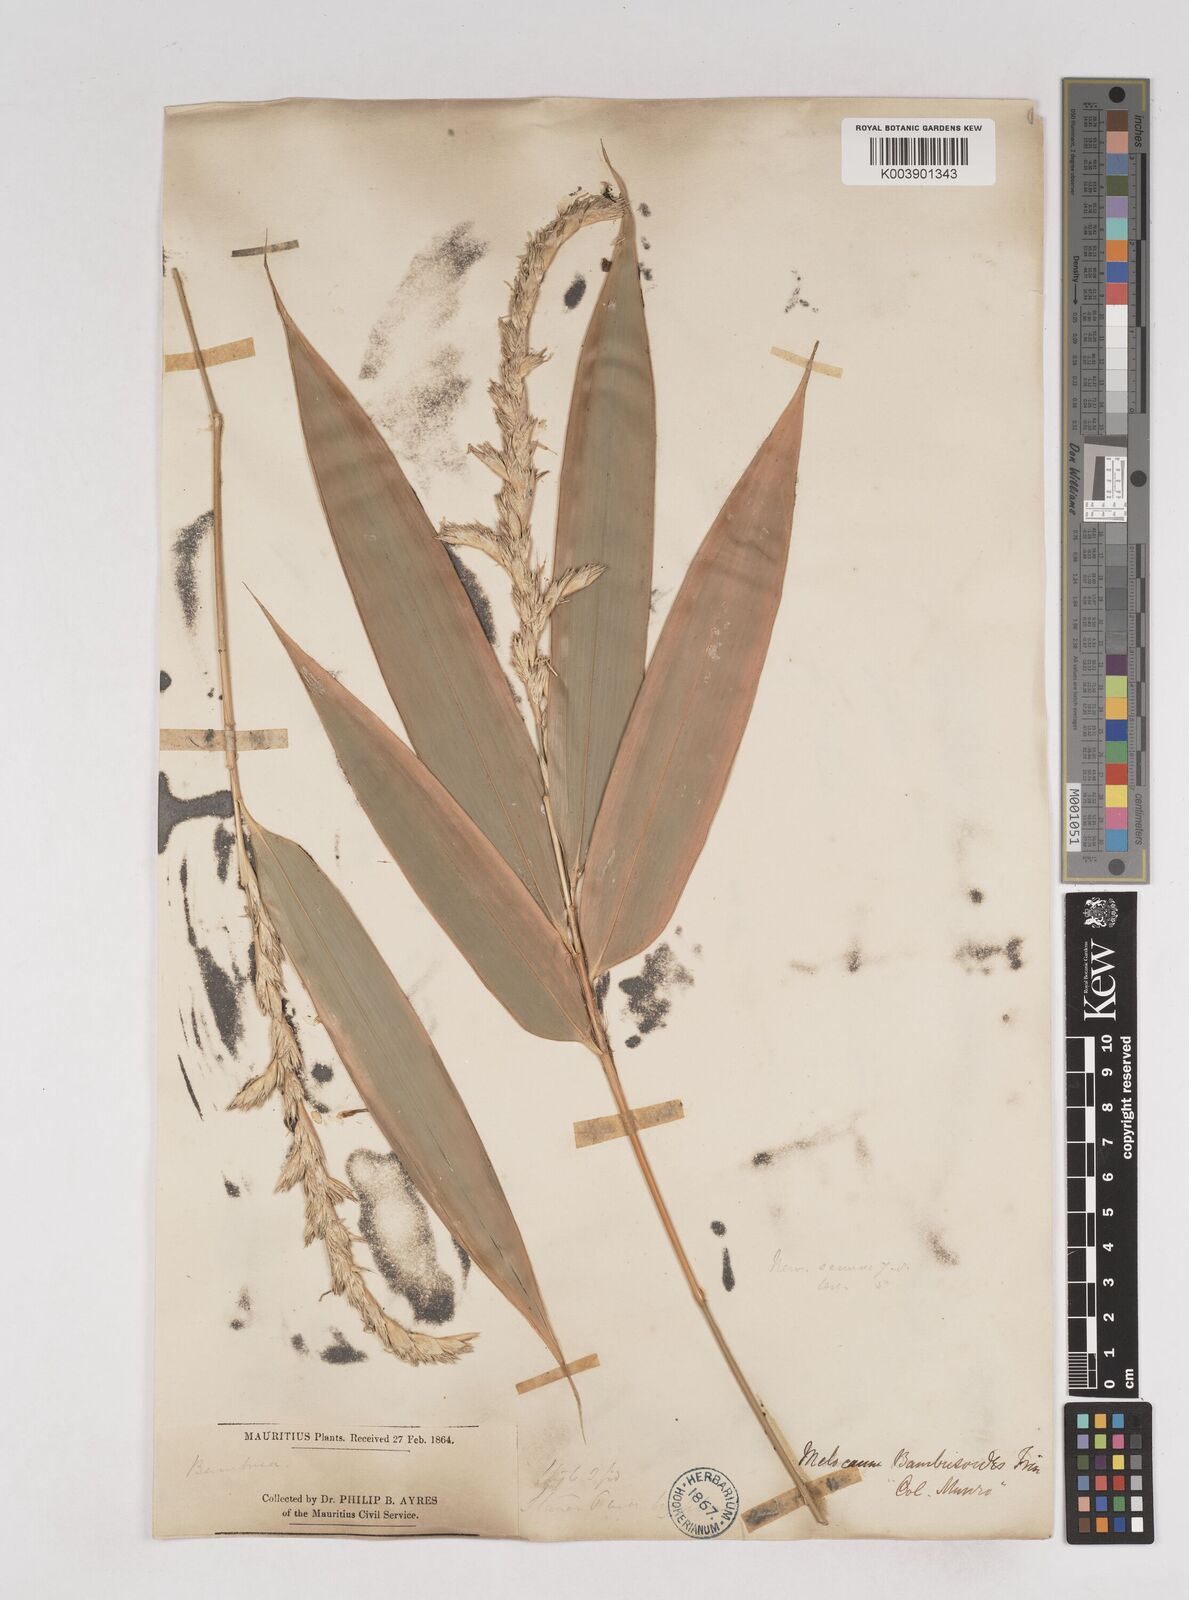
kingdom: Plantae
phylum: Tracheophyta
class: Liliopsida
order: Poales
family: Poaceae
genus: Melocanna
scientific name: Melocanna baccifera
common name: Berry bamboo
